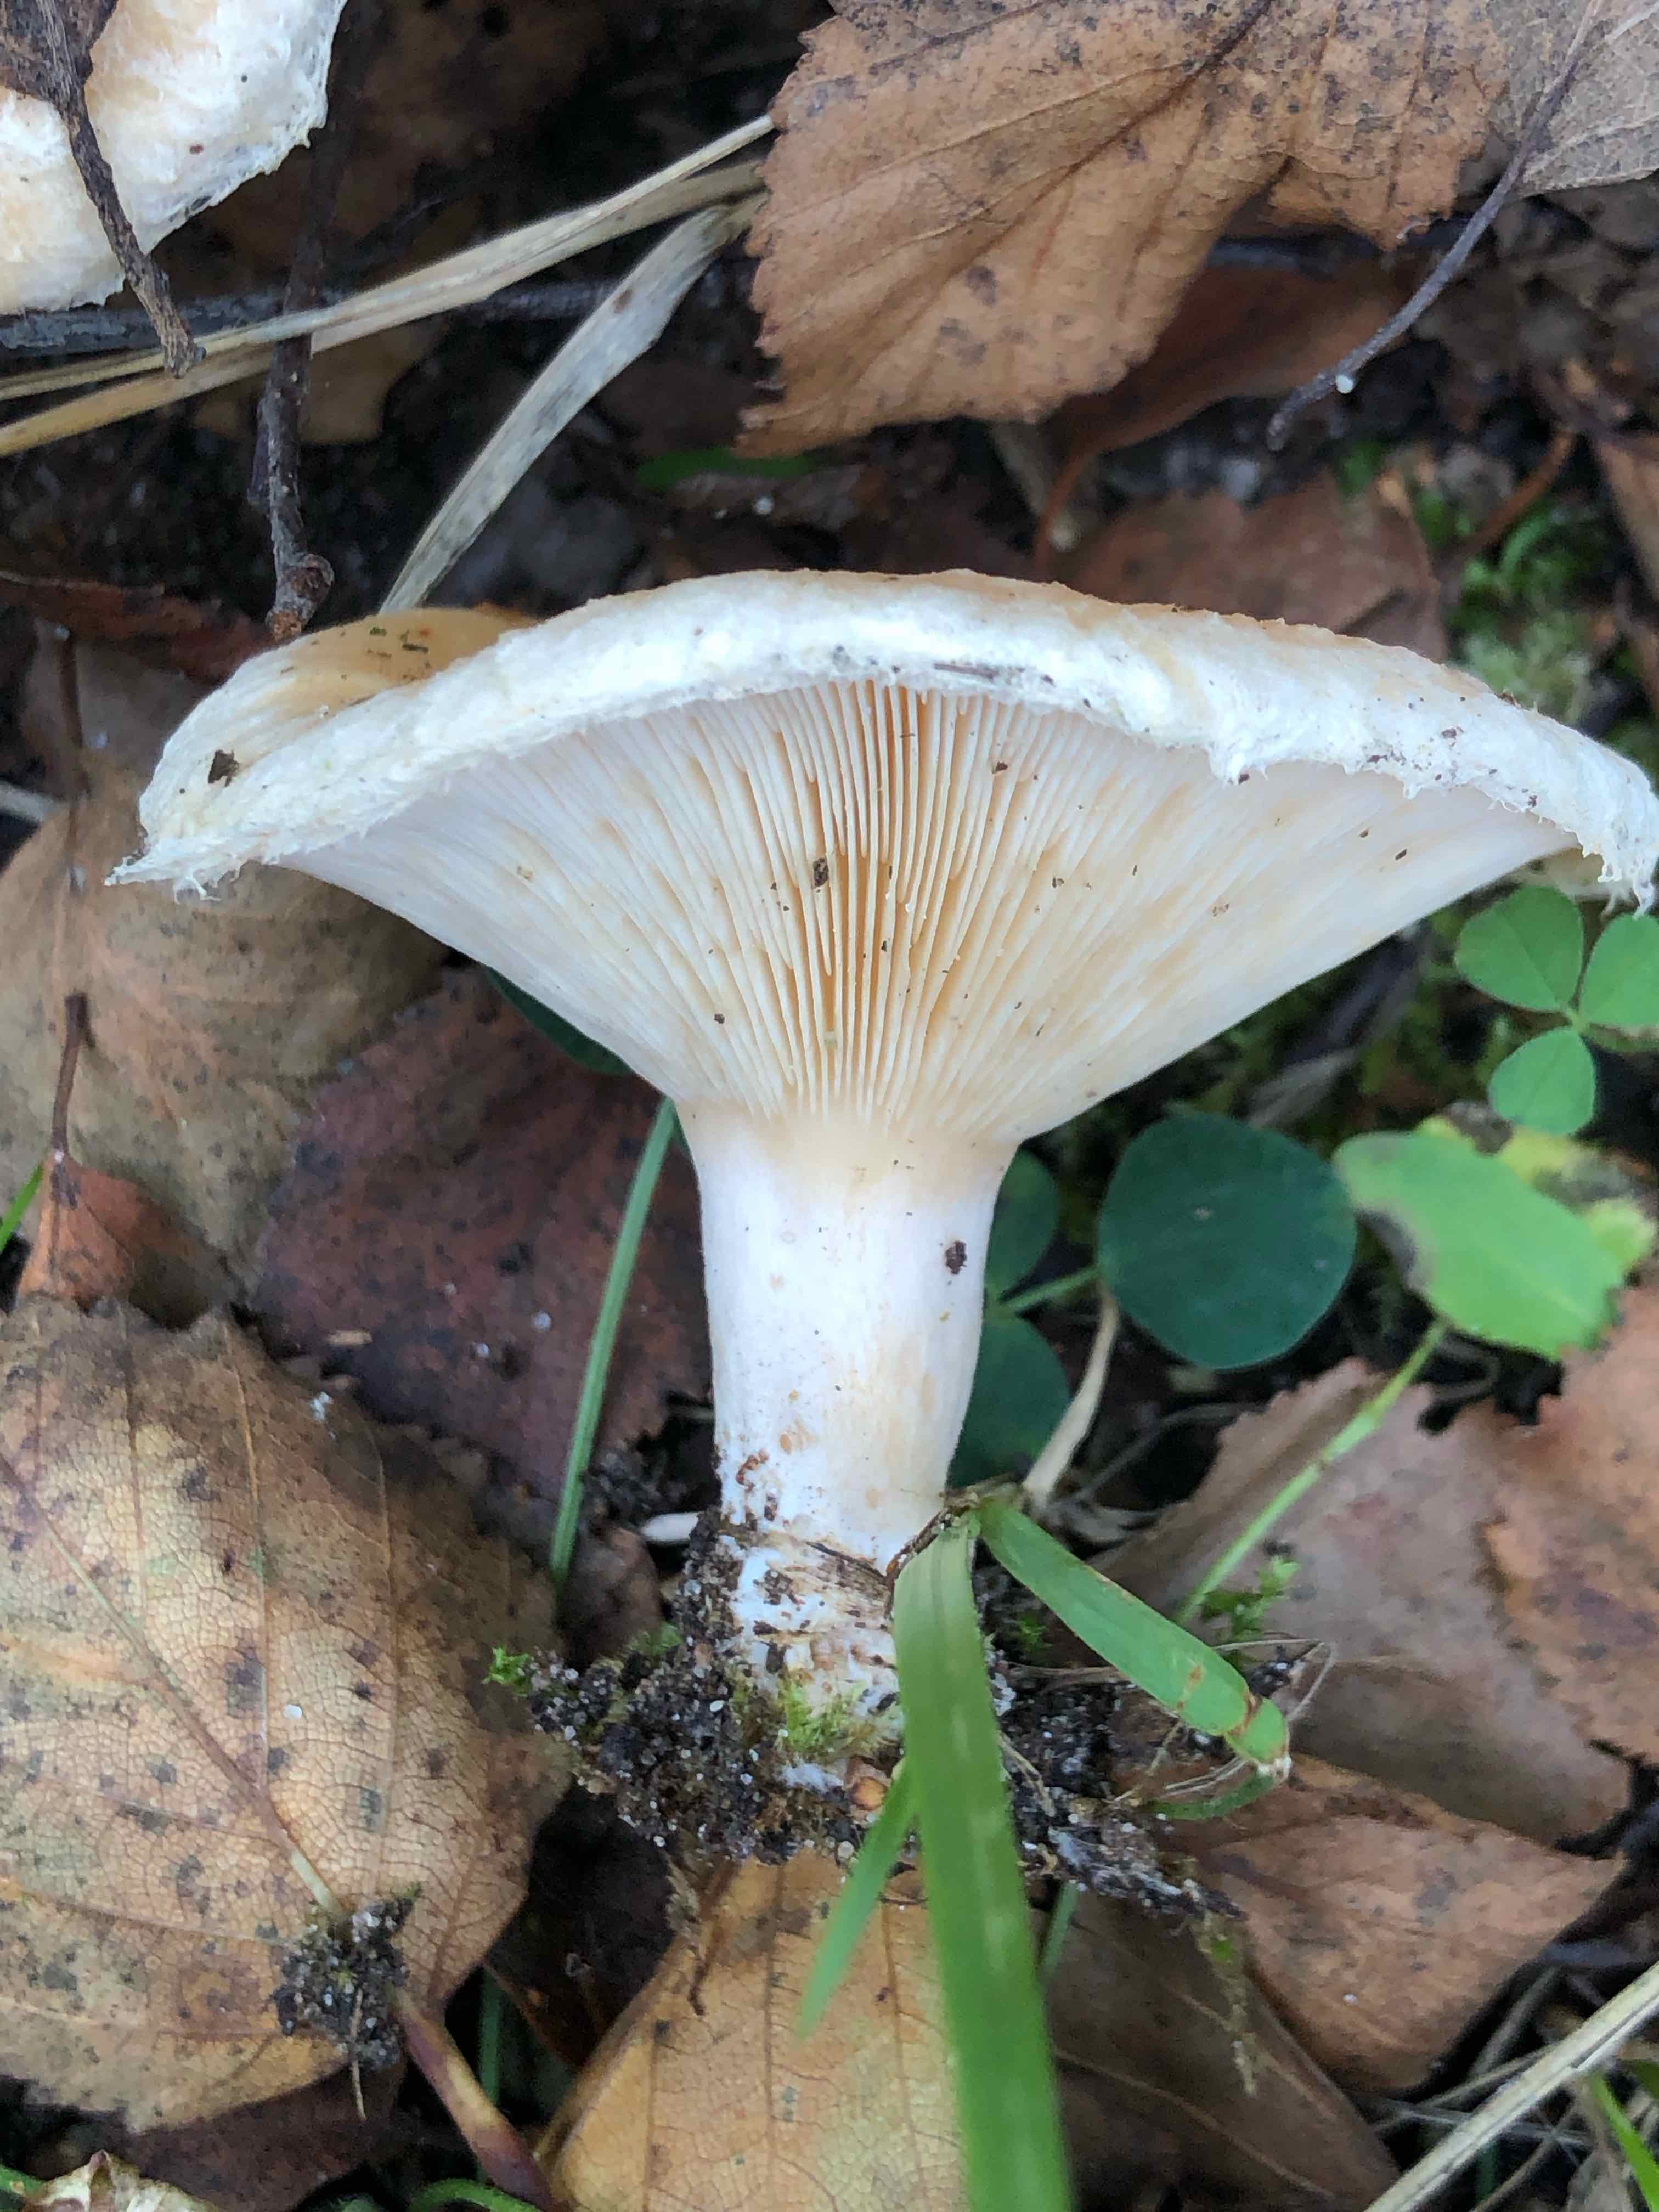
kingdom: Fungi
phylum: Basidiomycota
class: Agaricomycetes
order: Russulales
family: Russulaceae
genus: Lactarius
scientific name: Lactarius scoticus
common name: tørve-mælkehat
